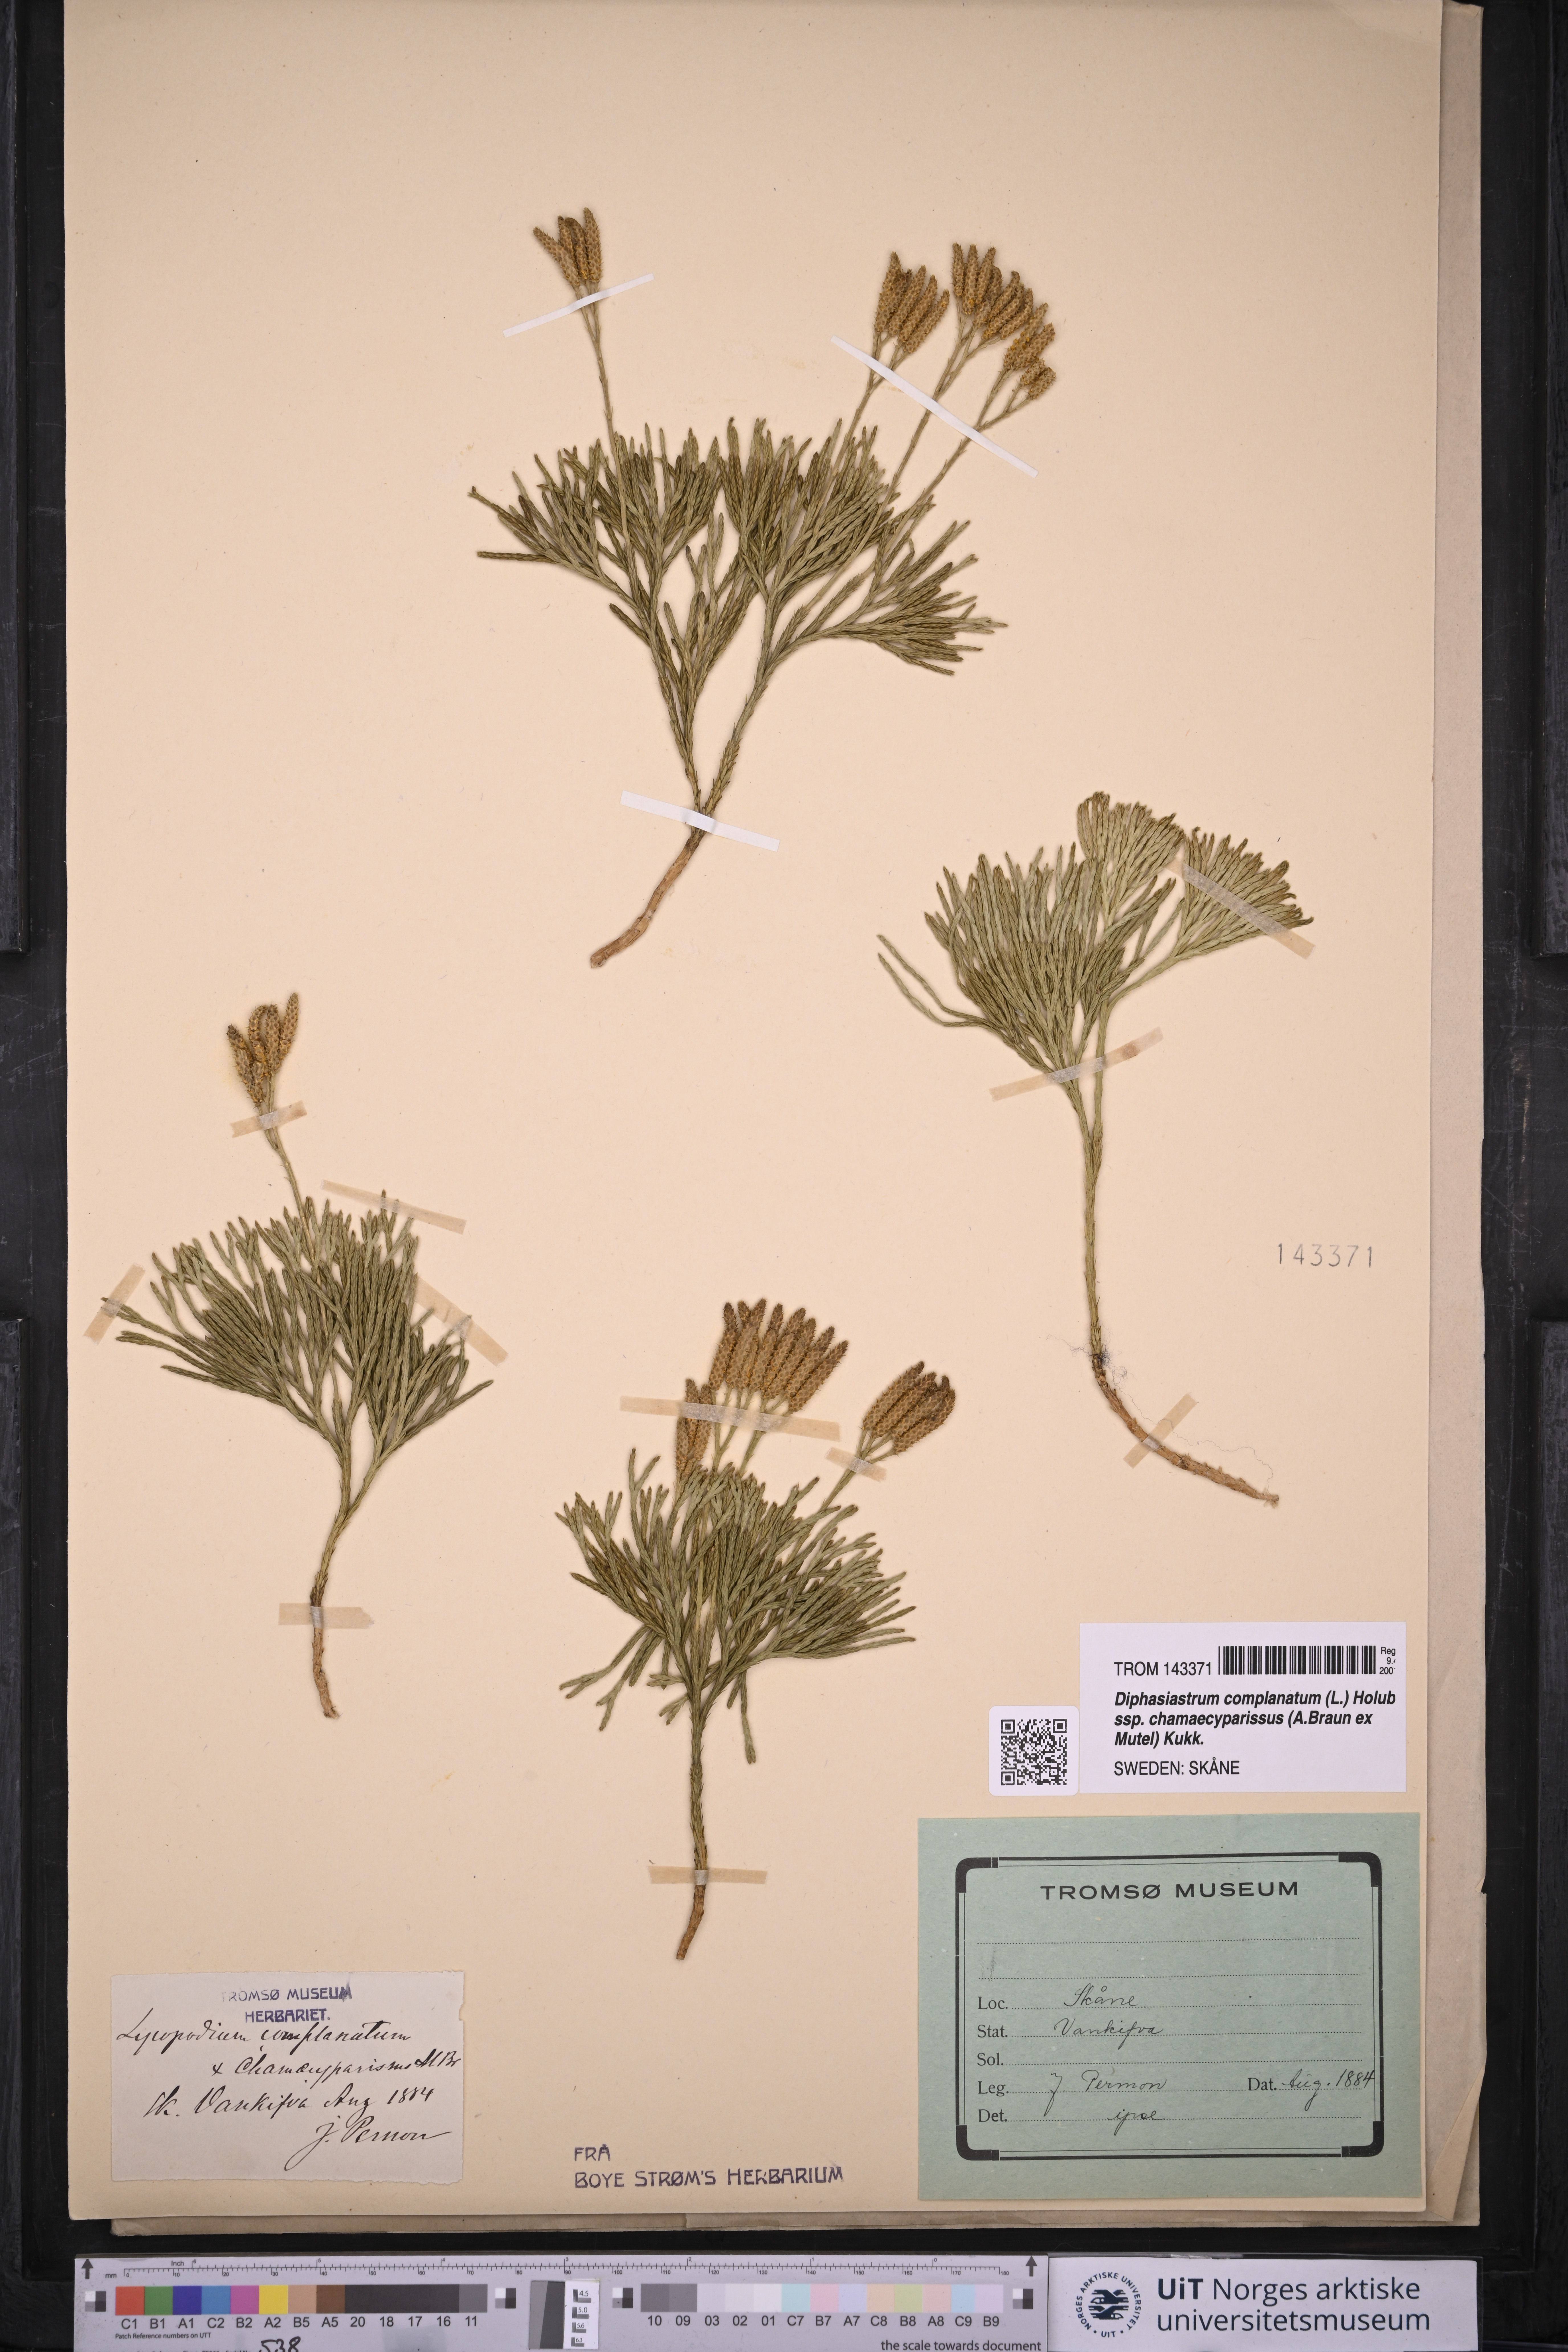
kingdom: Plantae
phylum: Tracheophyta
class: Lycopodiopsida
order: Lycopodiales
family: Lycopodiaceae
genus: Diphasiastrum
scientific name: Diphasiastrum tristachyum
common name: Blue ground-cedar
